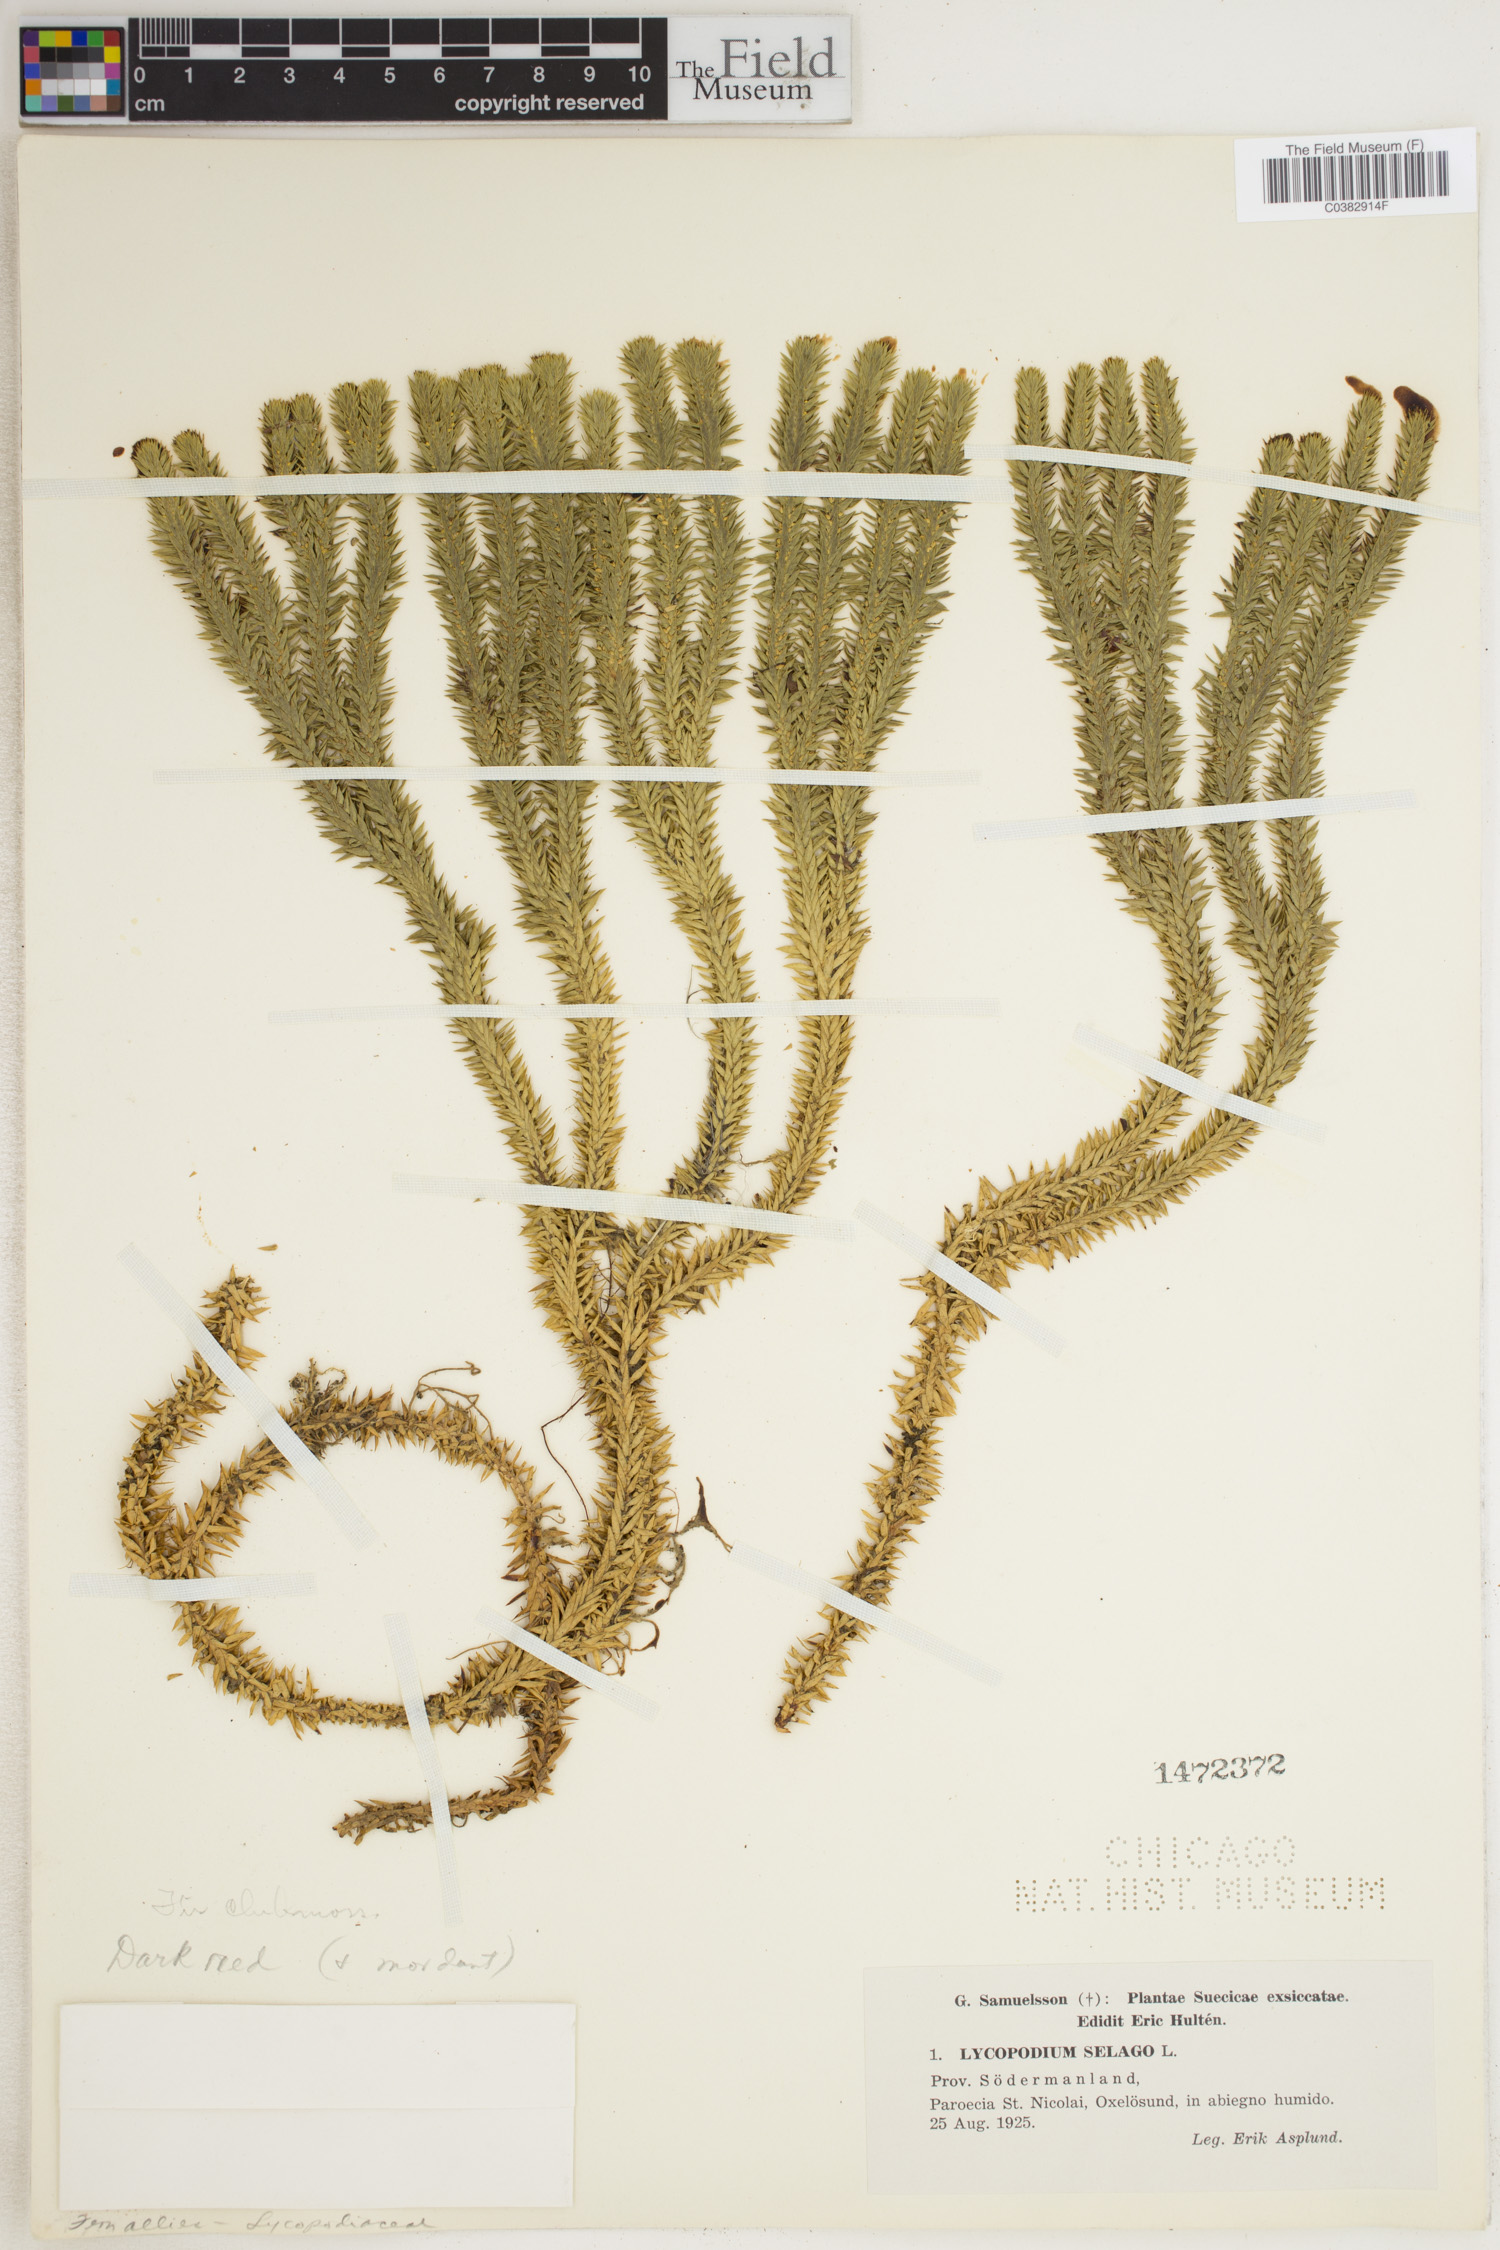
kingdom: Plantae
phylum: Tracheophyta
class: Lycopodiopsida
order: Lycopodiales
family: Lycopodiaceae
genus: Huperzia
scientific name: Huperzia selago
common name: Northern firmoss
